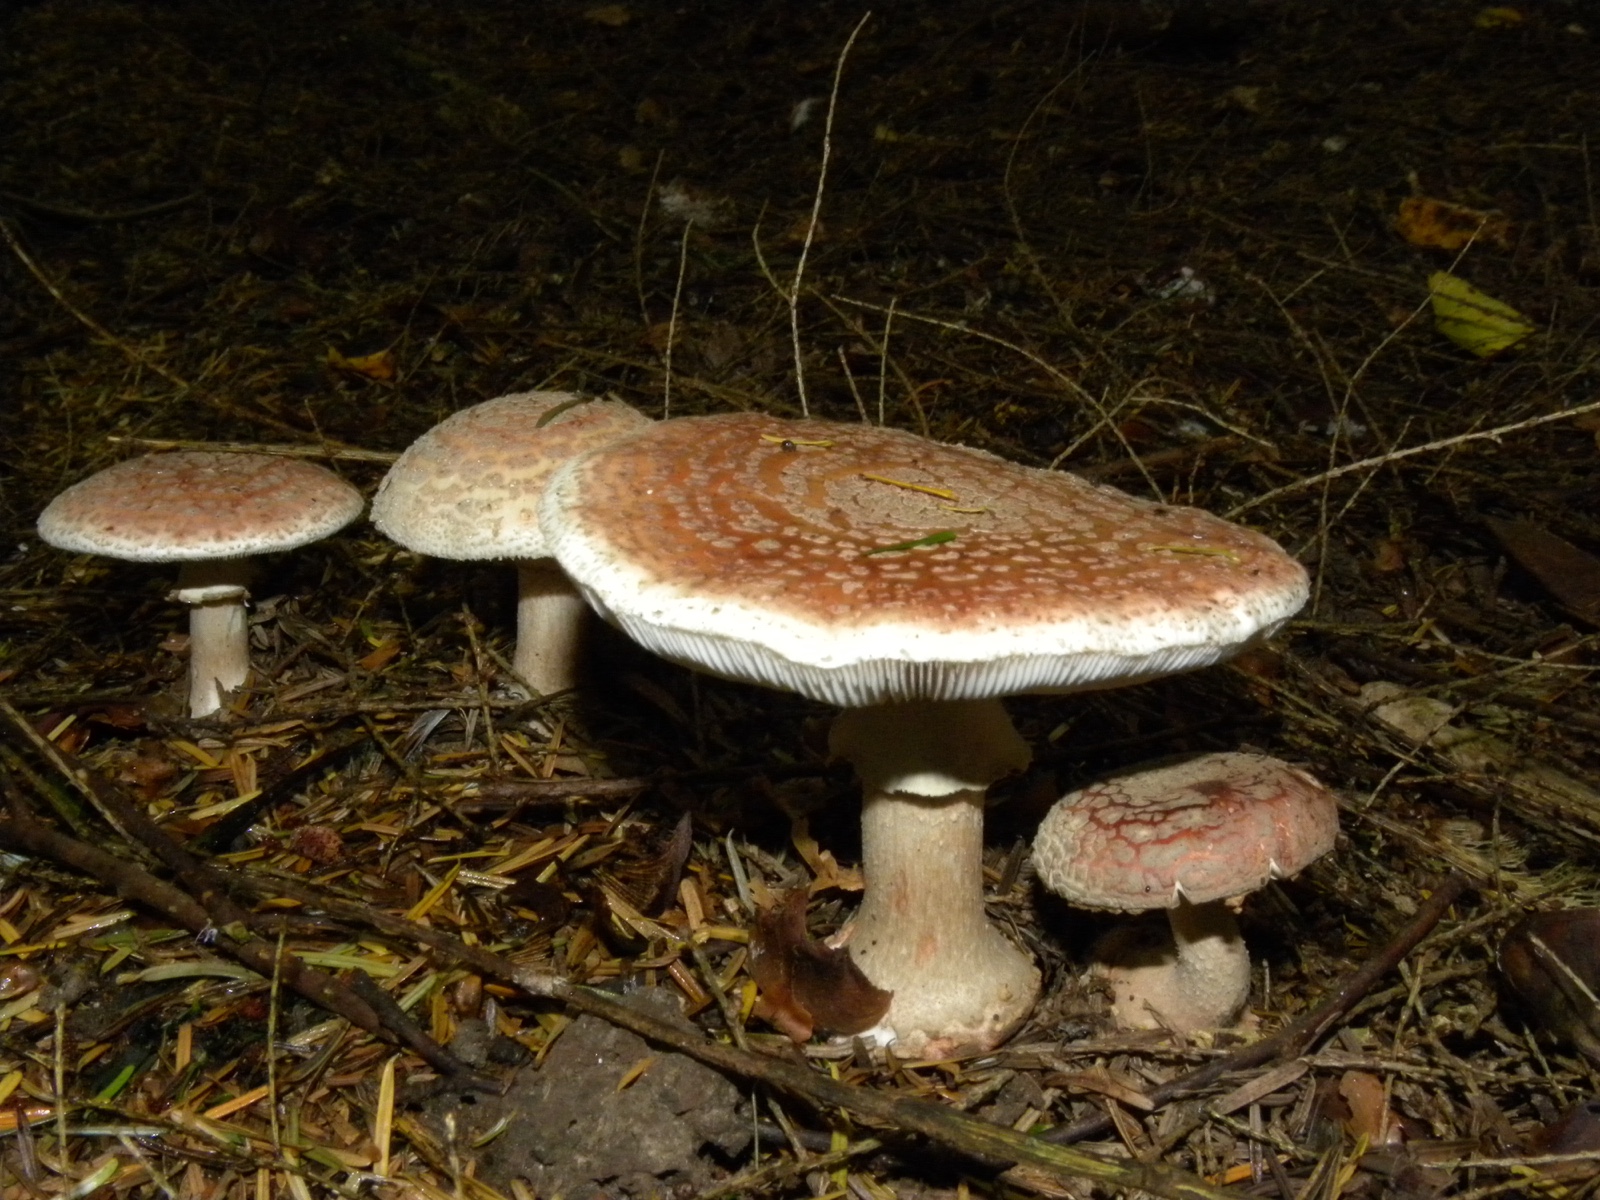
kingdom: Fungi
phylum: Basidiomycota
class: Agaricomycetes
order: Agaricales
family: Amanitaceae
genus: Amanita
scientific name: Amanita rubescens
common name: rødmende fluesvamp
